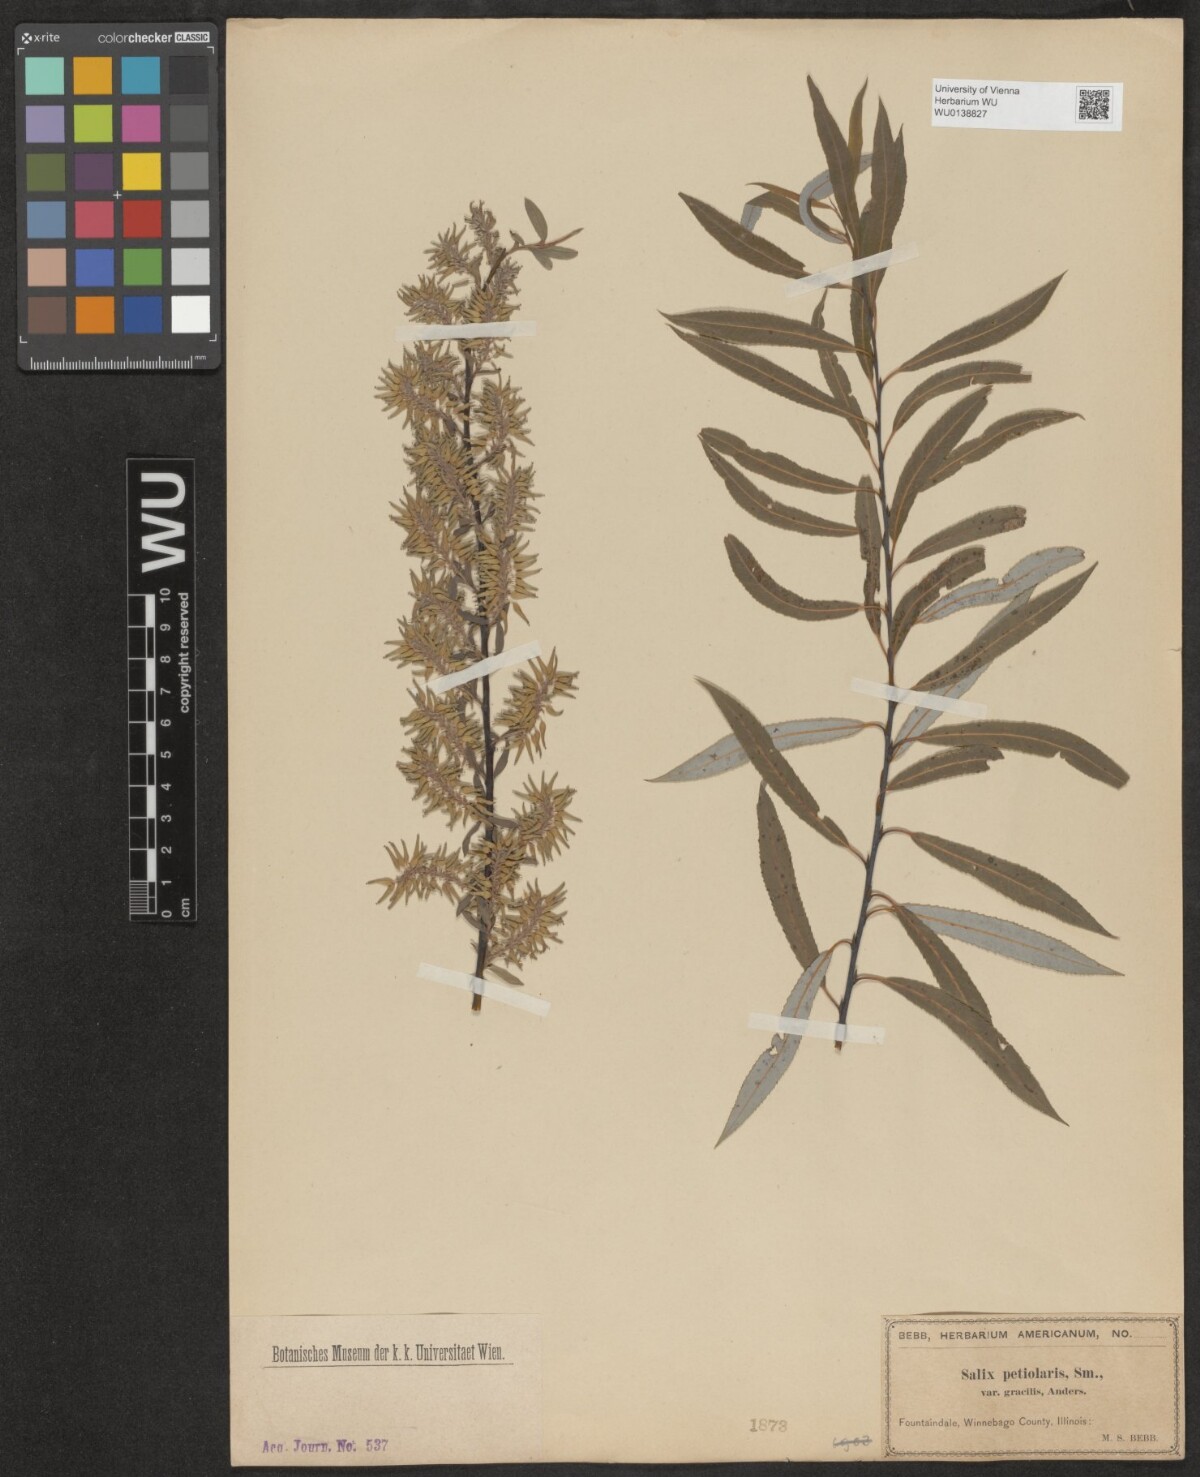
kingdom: Plantae
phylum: Tracheophyta
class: Magnoliopsida
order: Malpighiales
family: Salicaceae
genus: Salix
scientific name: Salix petiolaris
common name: Slender willow
